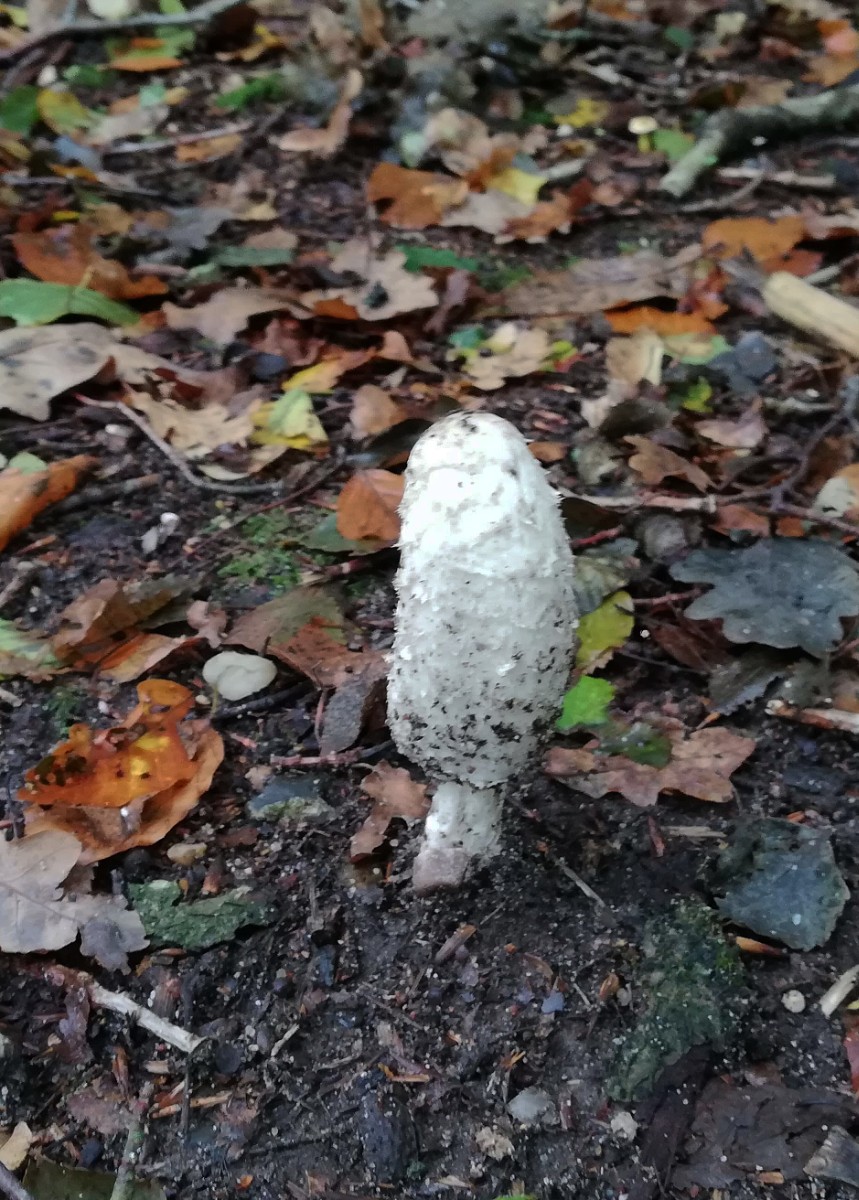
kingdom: Fungi
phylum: Basidiomycota
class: Agaricomycetes
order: Agaricales
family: Agaricaceae
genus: Coprinus
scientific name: Coprinus comatus
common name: stor parykhat
